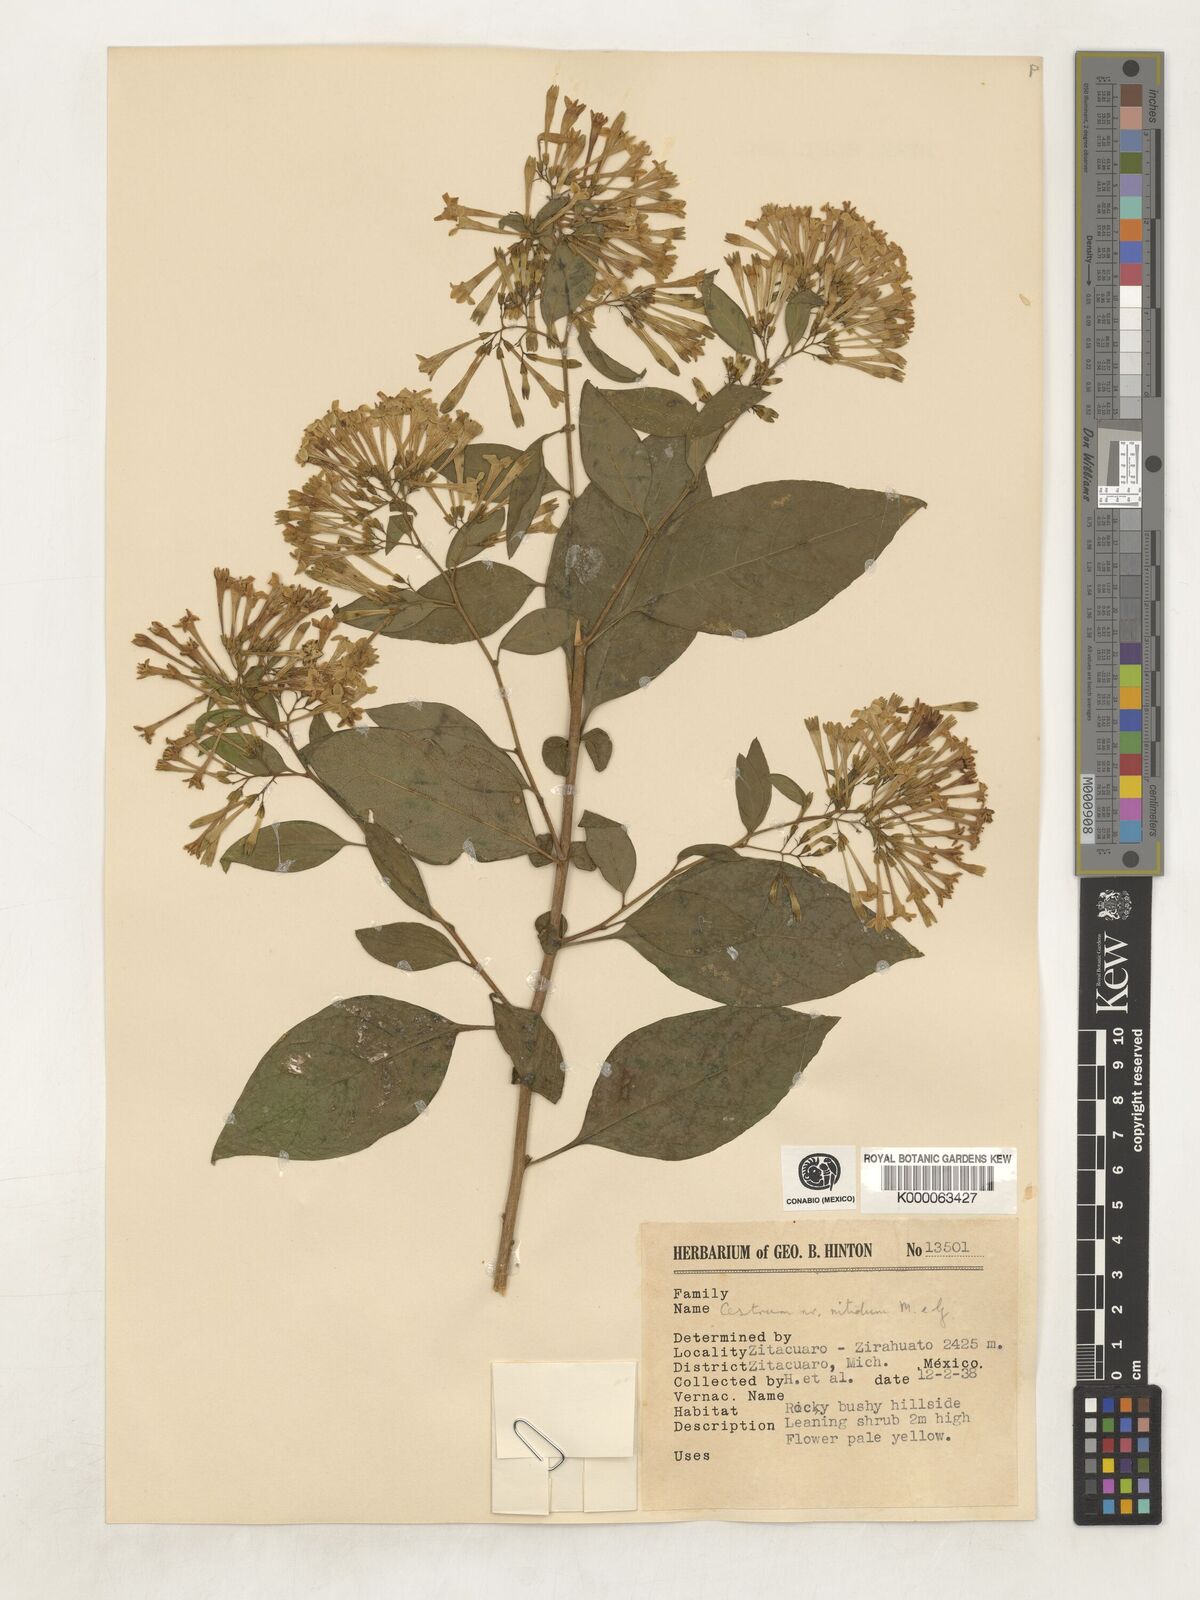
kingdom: Plantae
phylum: Tracheophyta
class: Magnoliopsida
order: Solanales
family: Solanaceae
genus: Cestrum
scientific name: Cestrum nitidum
